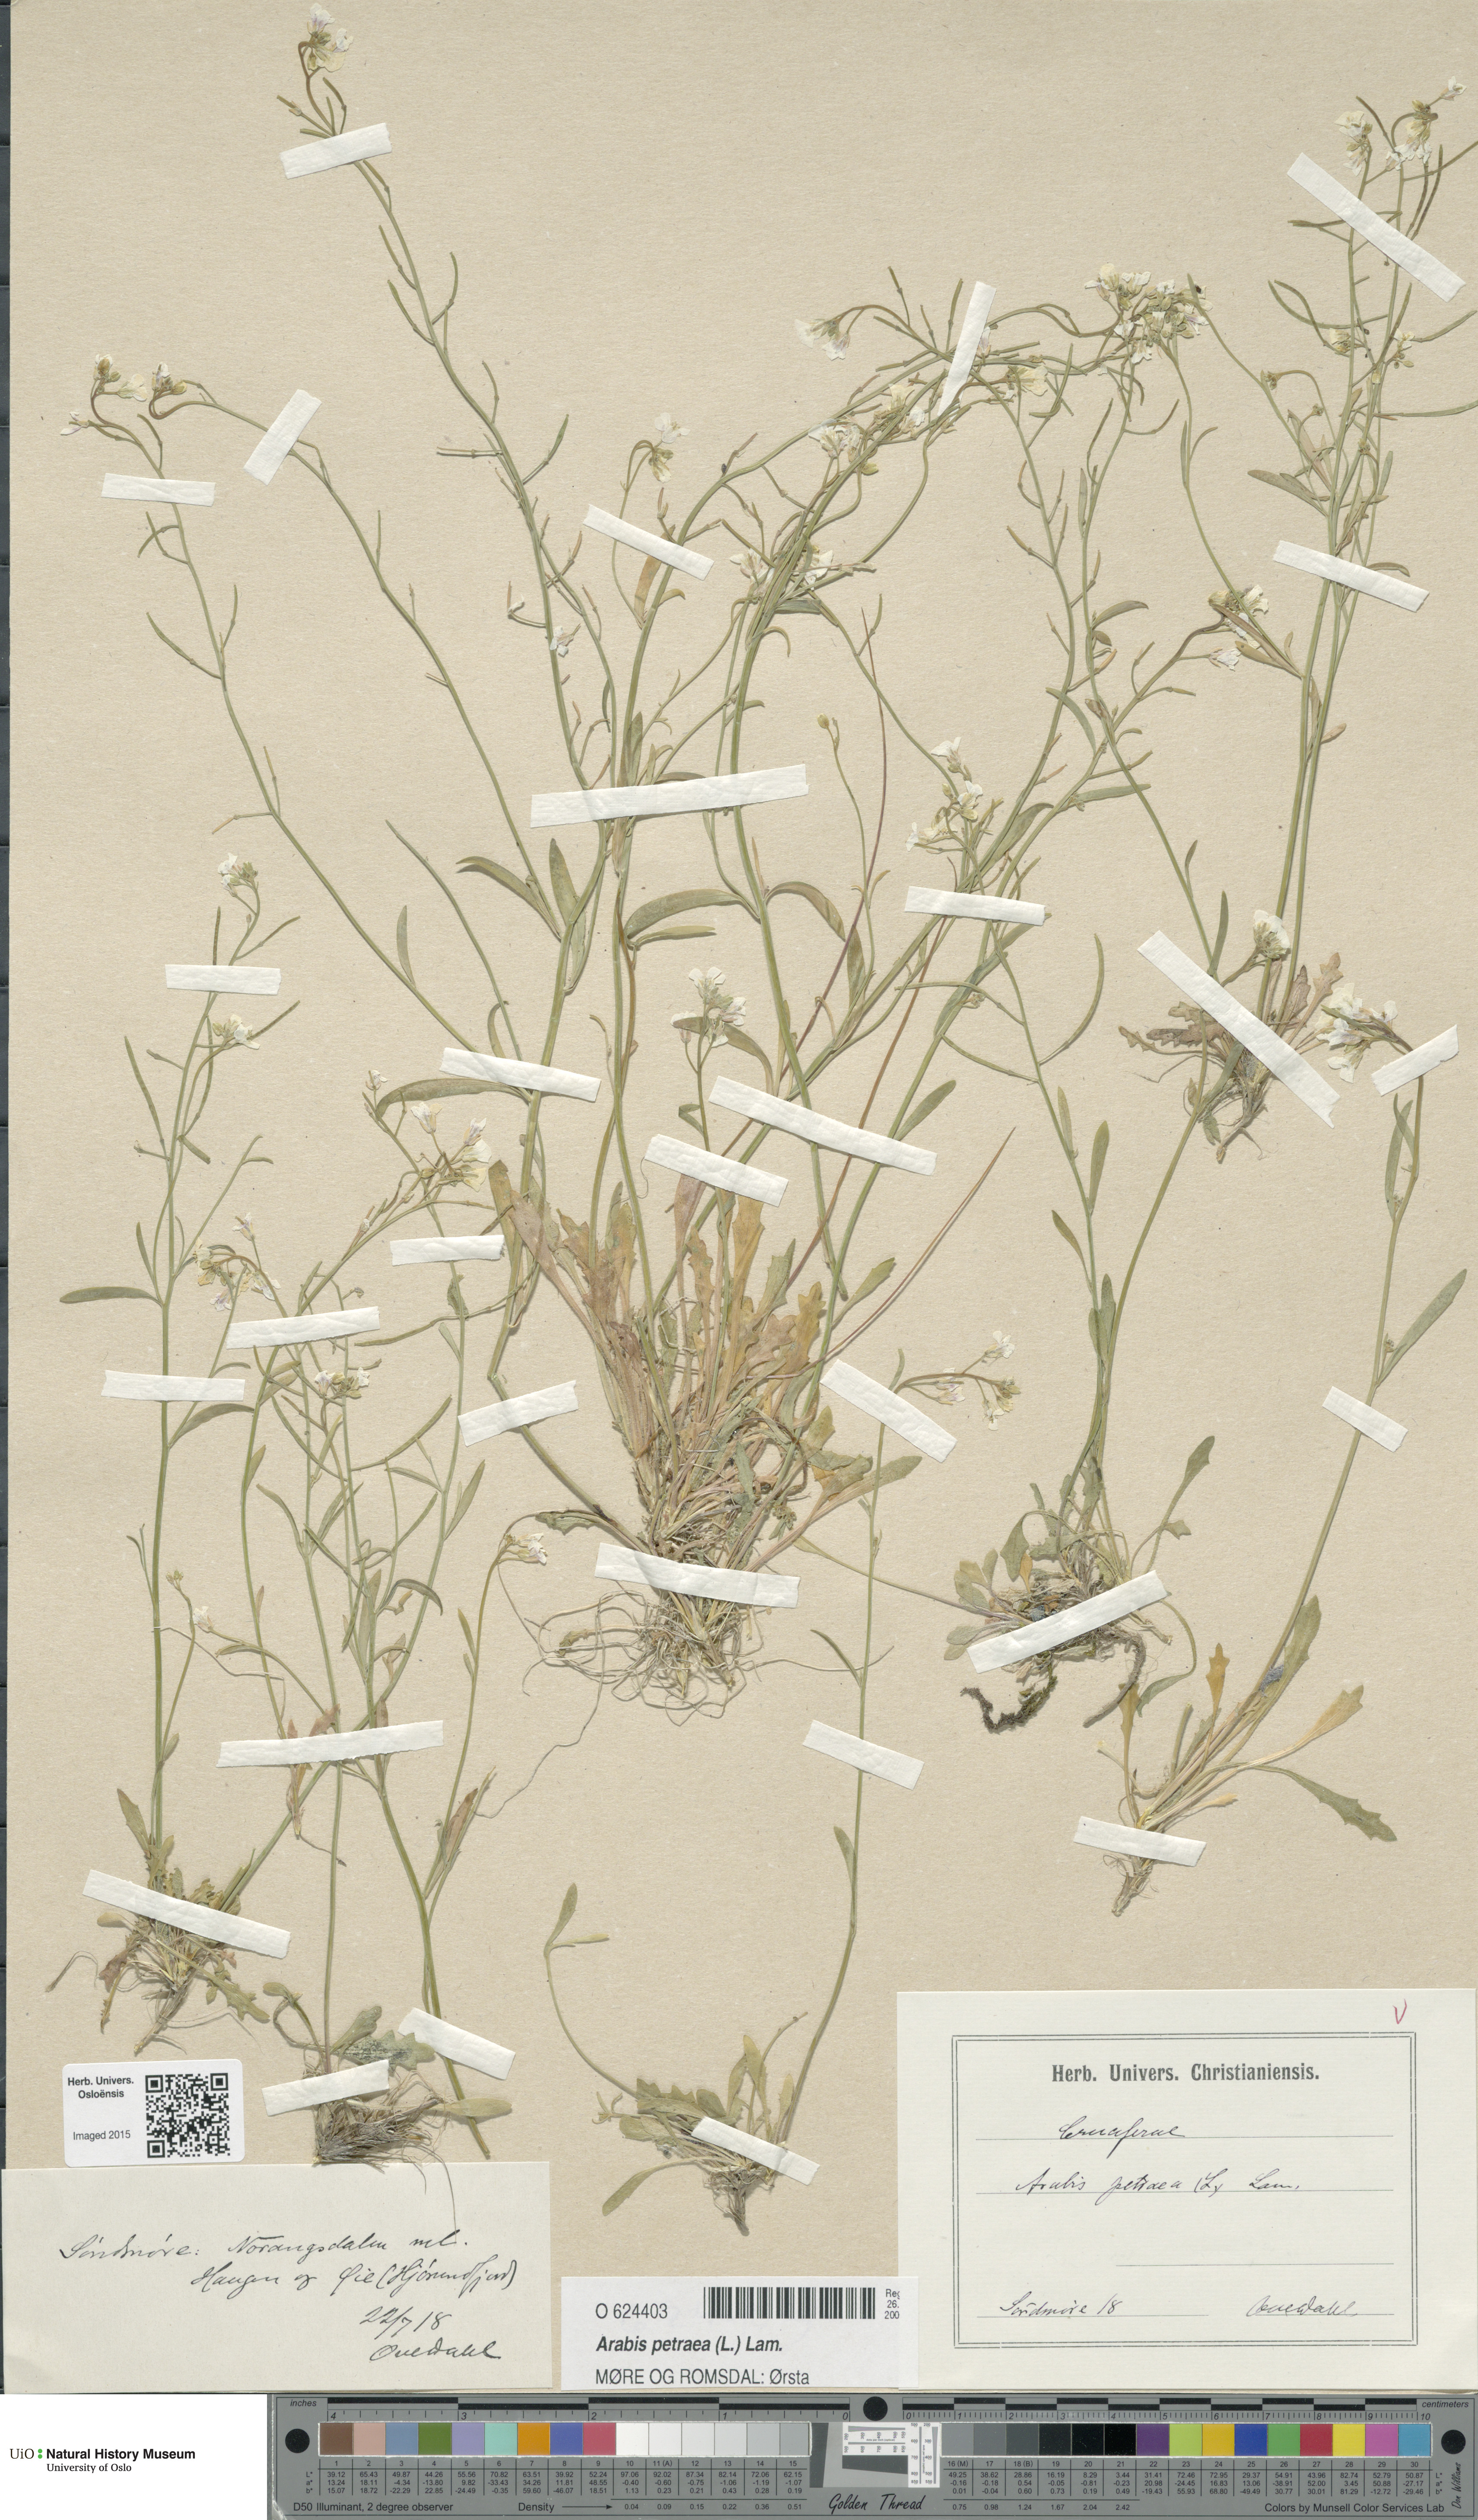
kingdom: Plantae
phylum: Tracheophyta
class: Magnoliopsida
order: Brassicales
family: Brassicaceae
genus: Arabidopsis
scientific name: Arabidopsis petraea
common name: Northern rock-cress
